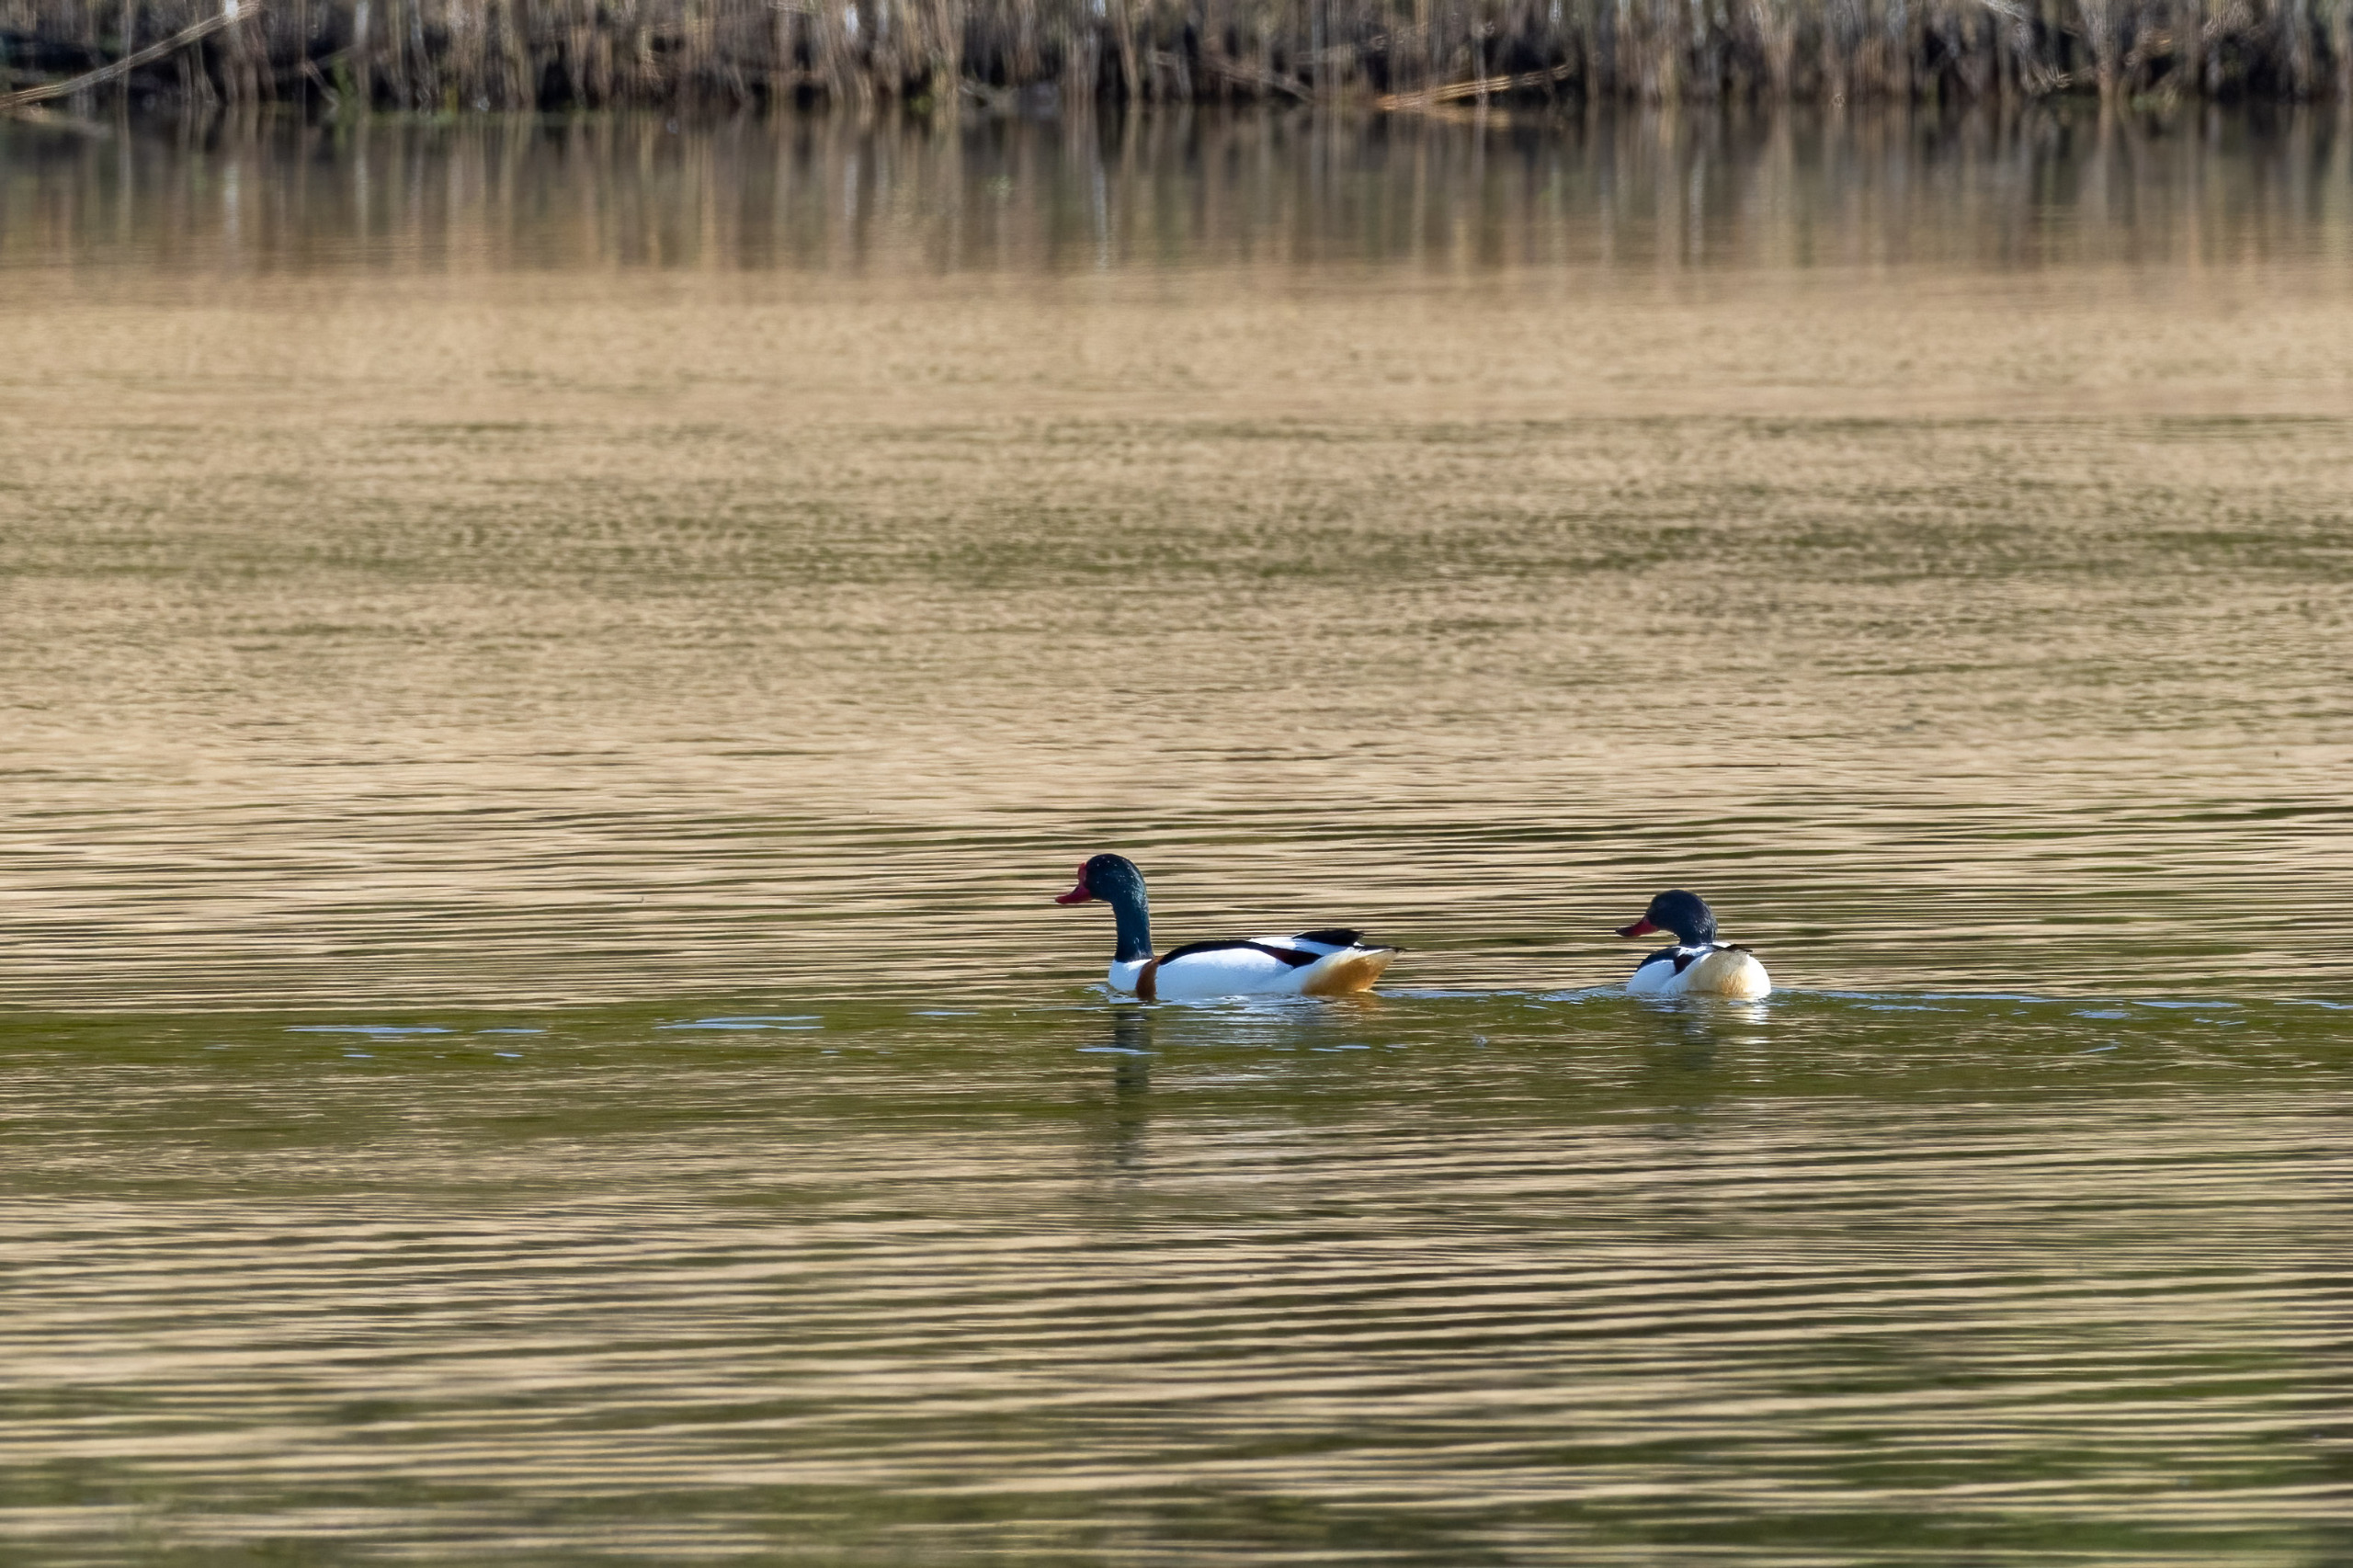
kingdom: Animalia
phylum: Chordata
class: Aves
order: Anseriformes
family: Anatidae
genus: Tadorna
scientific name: Tadorna tadorna
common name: Gravand
